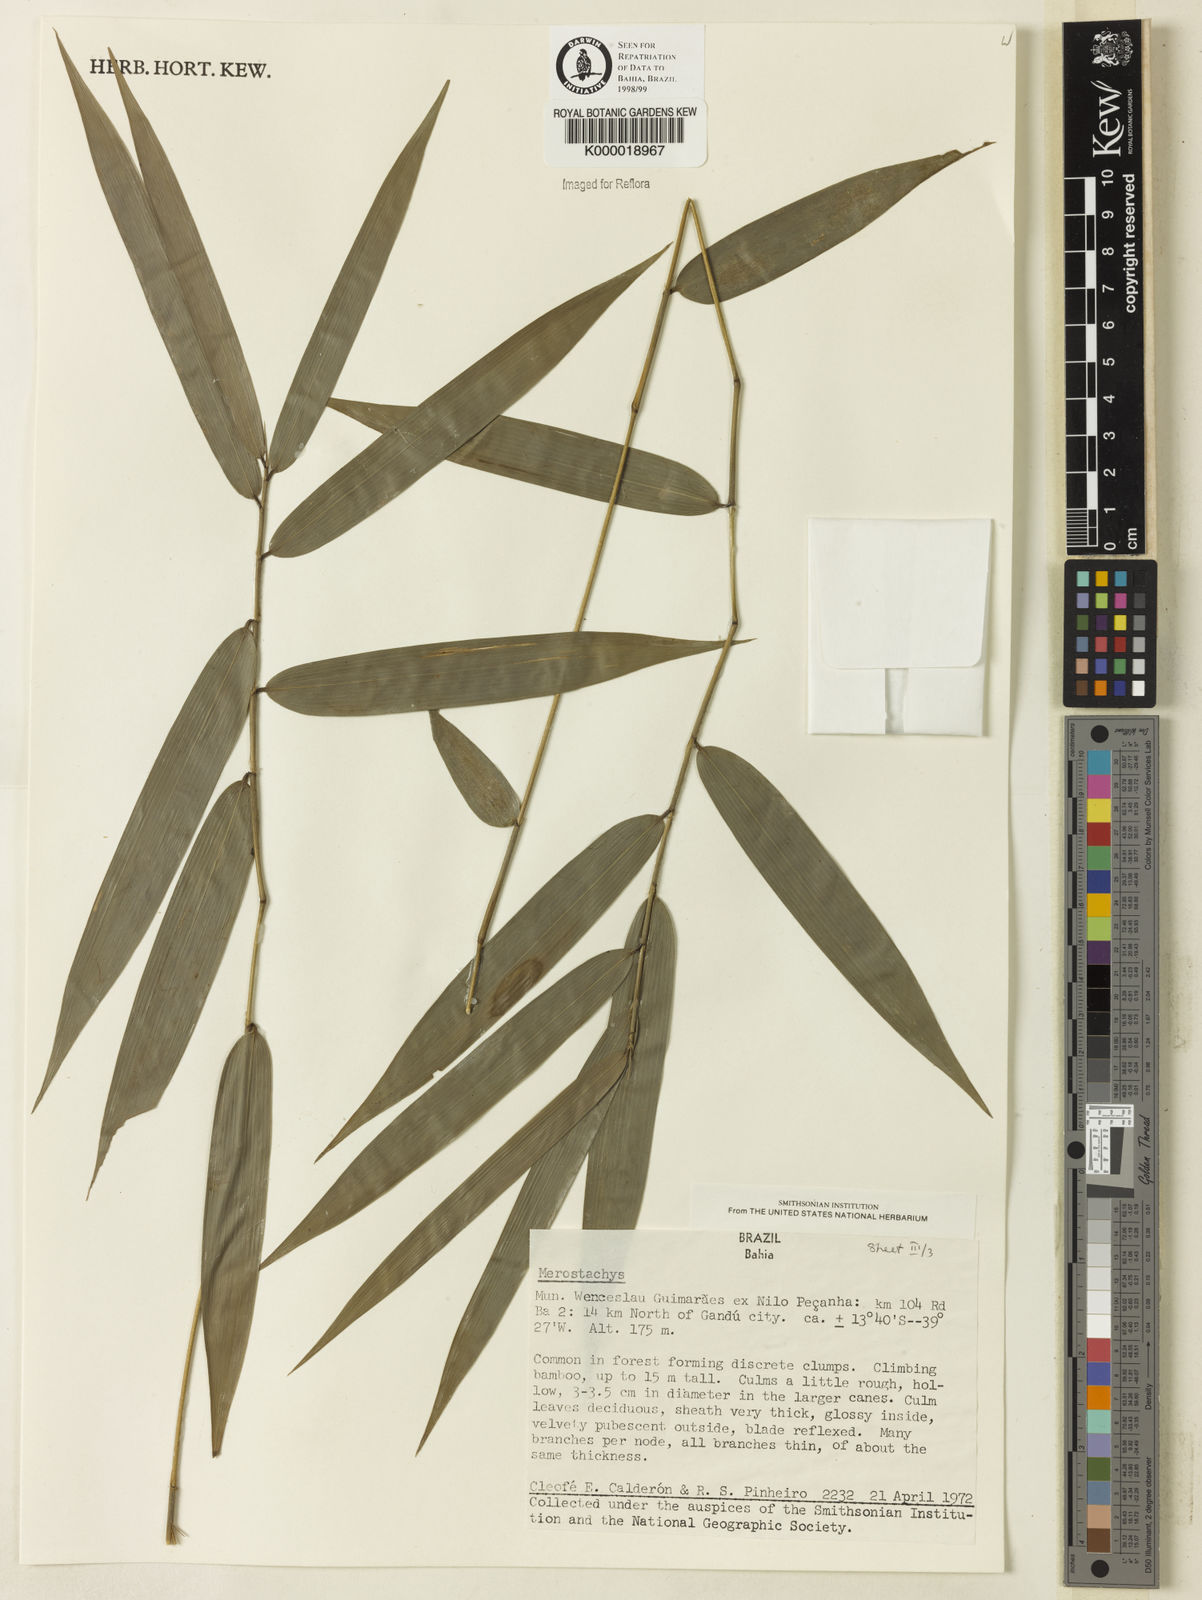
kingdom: Plantae
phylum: Tracheophyta
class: Liliopsida
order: Poales
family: Poaceae
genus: Merostachys
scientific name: Merostachys
